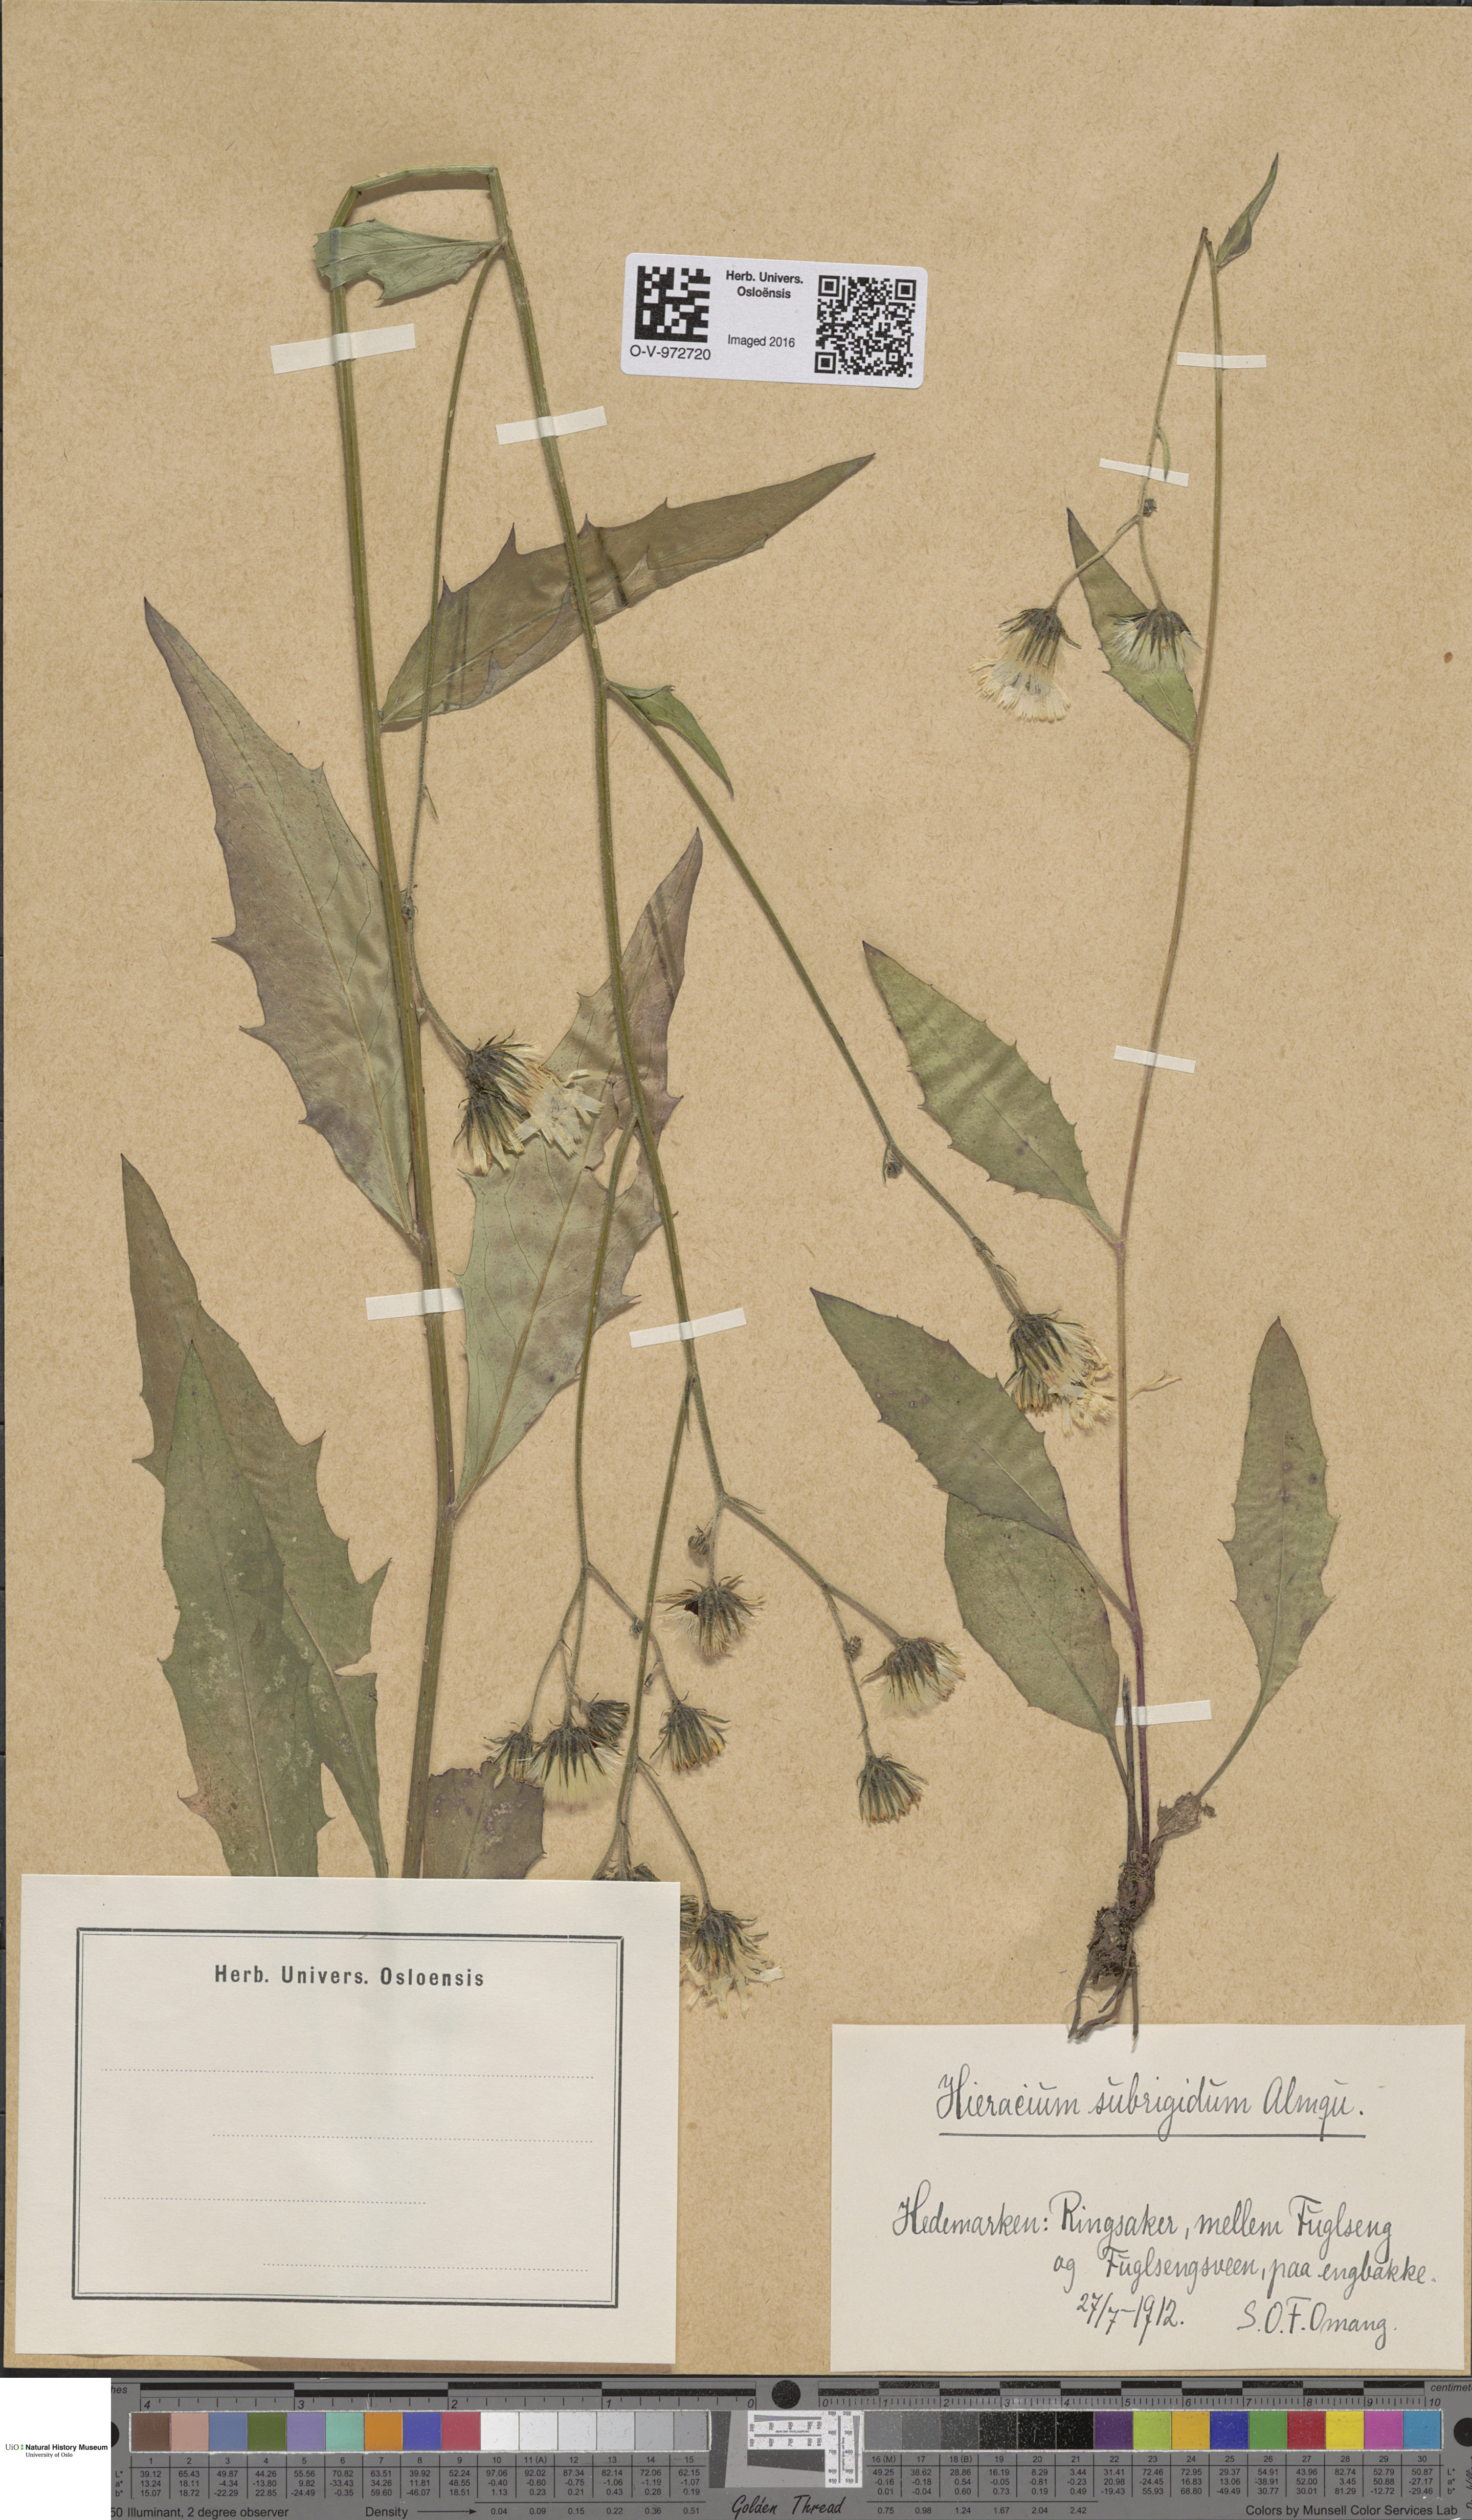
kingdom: Plantae
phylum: Tracheophyta
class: Magnoliopsida
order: Asterales
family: Asteraceae
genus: Hieracium
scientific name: Hieracium subrigidum
